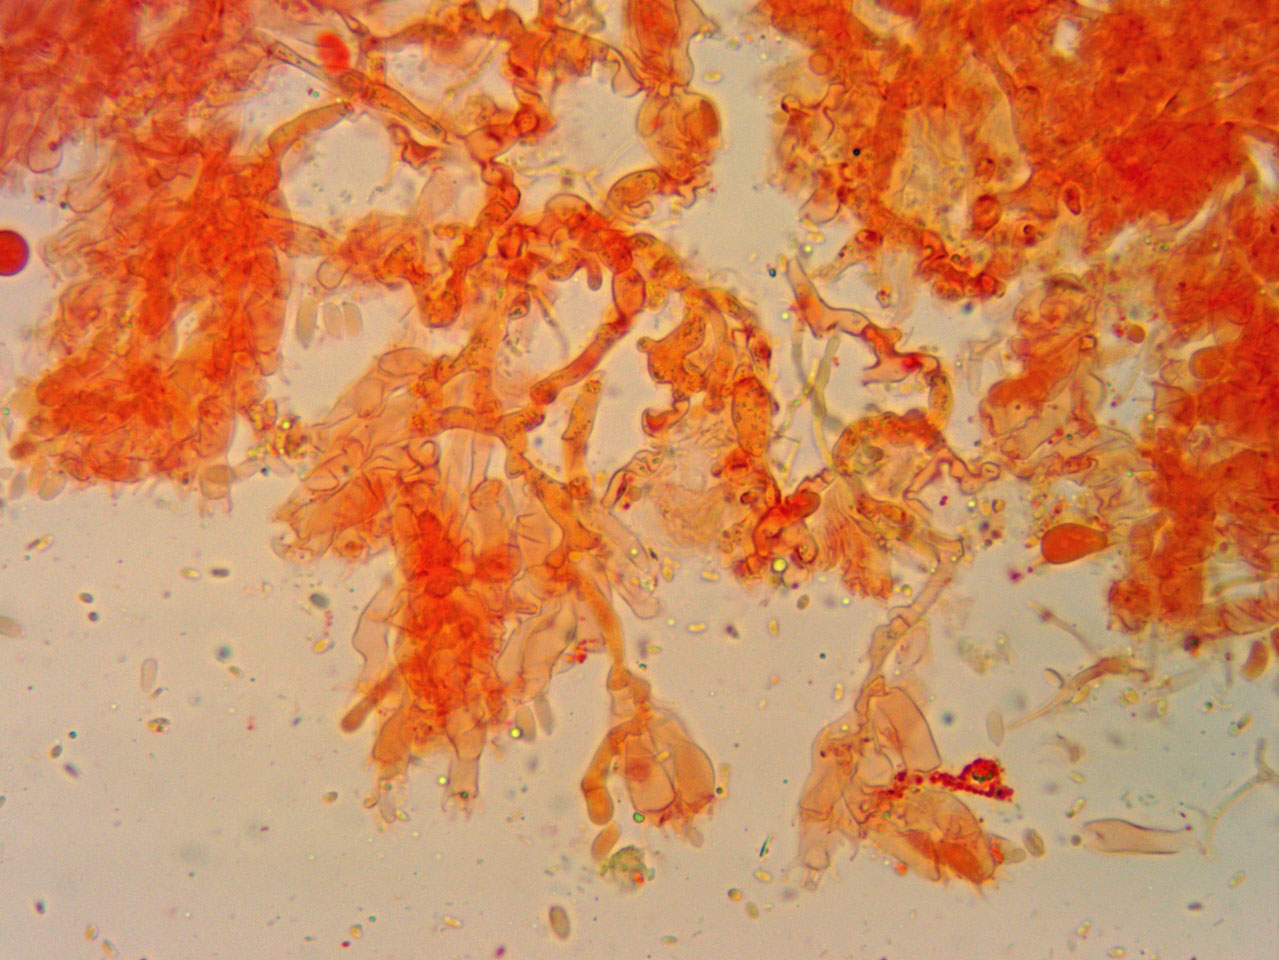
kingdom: Fungi
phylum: Basidiomycota
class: Agaricomycetes
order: Trechisporales
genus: Sertulicium
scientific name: Sertulicium niveocremeum
